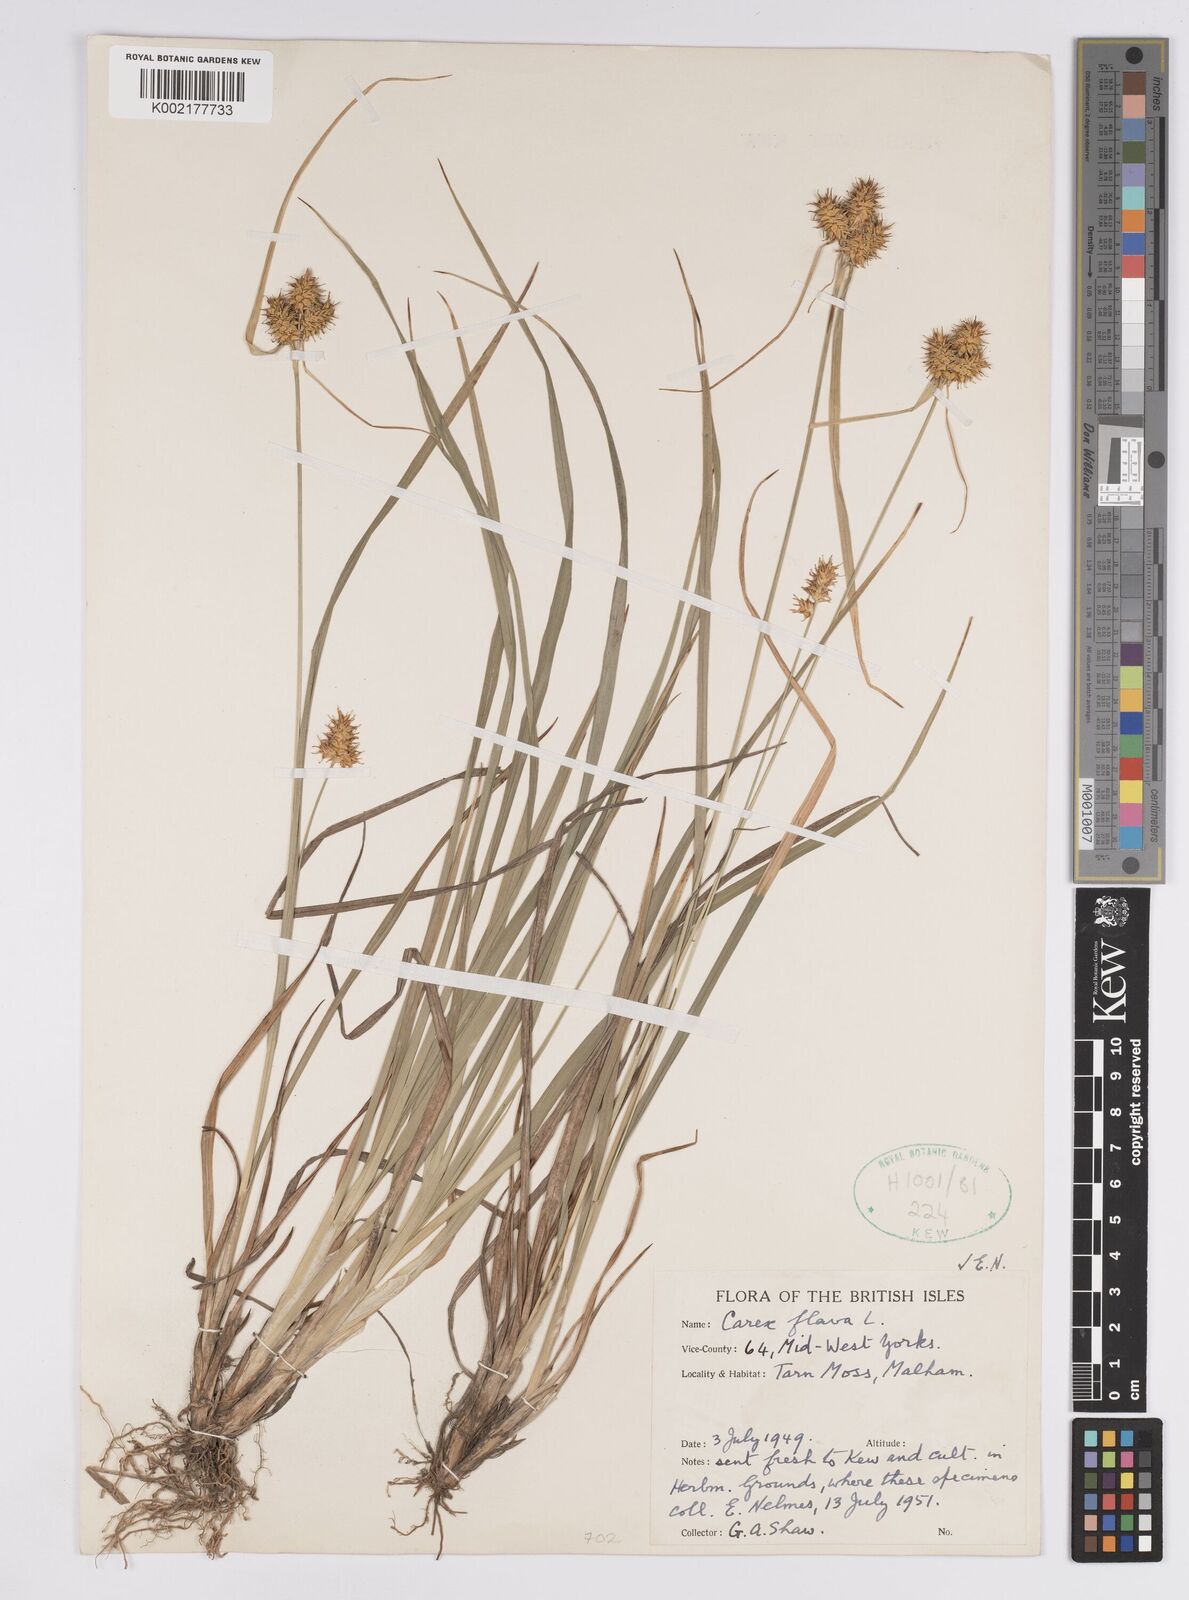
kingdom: Plantae
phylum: Tracheophyta
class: Liliopsida
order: Poales
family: Cyperaceae
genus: Carex
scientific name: Carex flava
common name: Large yellow-sedge
